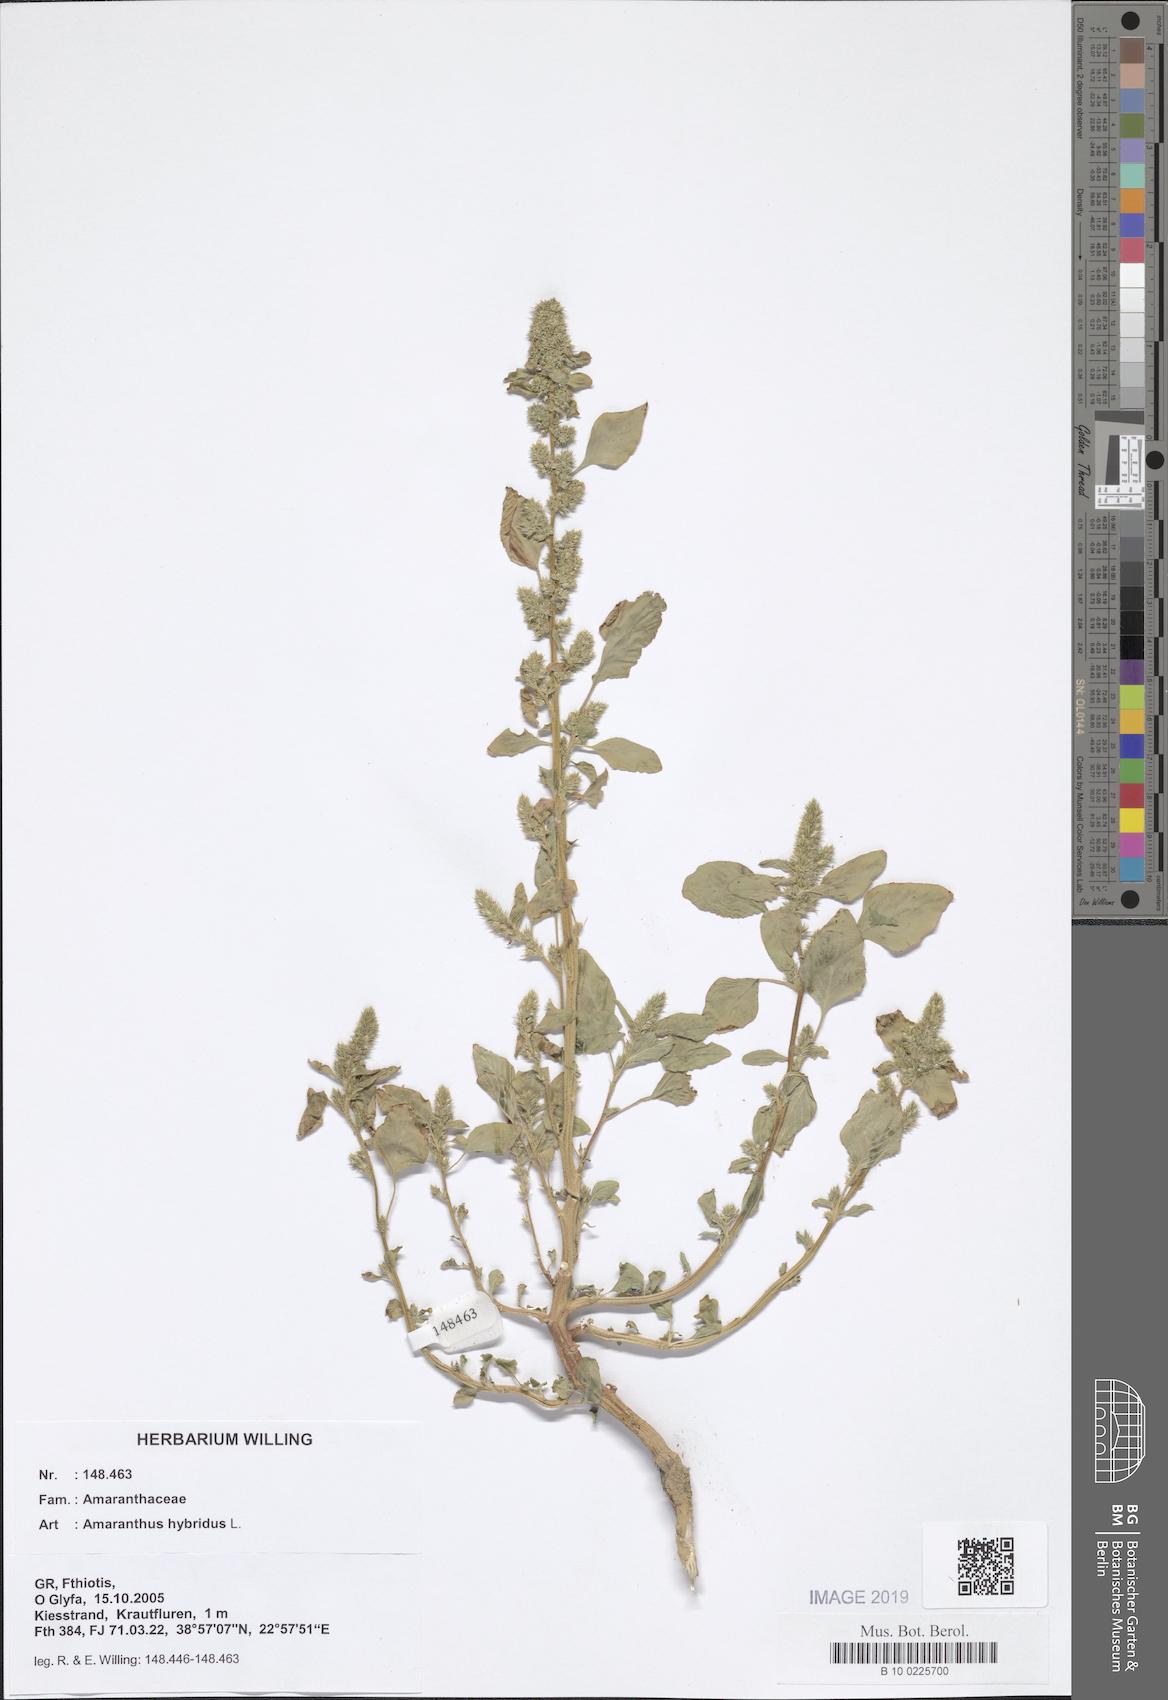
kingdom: Plantae
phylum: Tracheophyta
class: Magnoliopsida
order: Caryophyllales
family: Amaranthaceae
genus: Amaranthus
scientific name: Amaranthus hybridus
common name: Green amaranth
